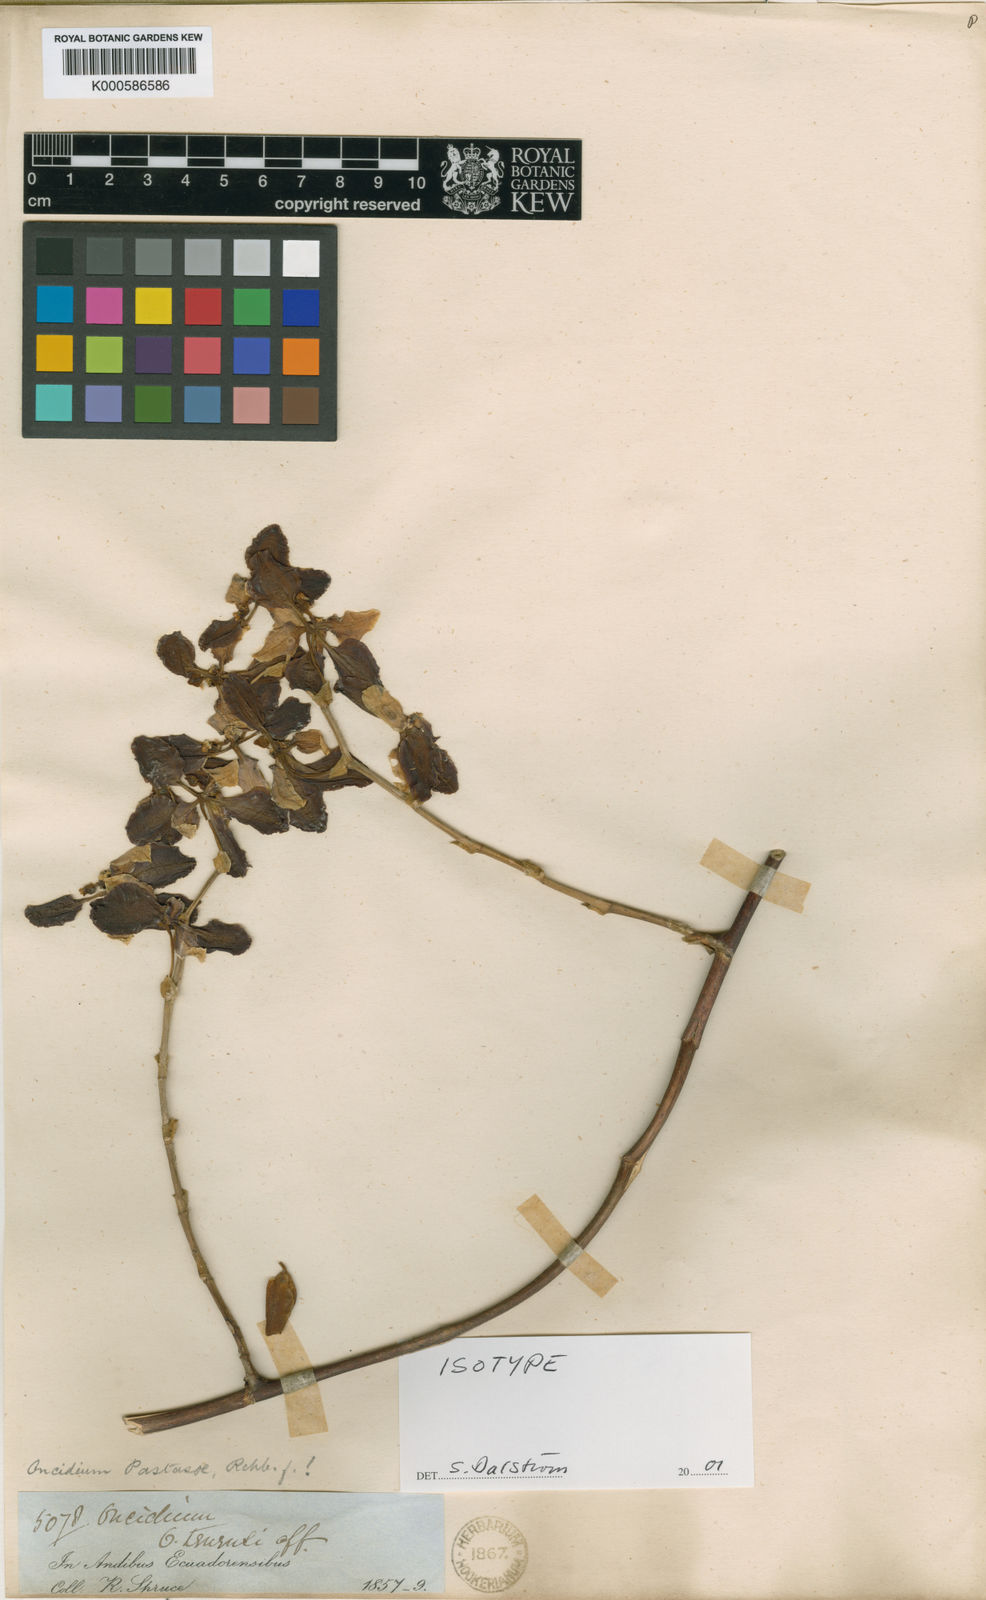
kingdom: Plantae
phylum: Tracheophyta
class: Liliopsida
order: Asparagales
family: Orchidaceae
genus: Cyrtochilum
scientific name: Cyrtochilum pastasae
